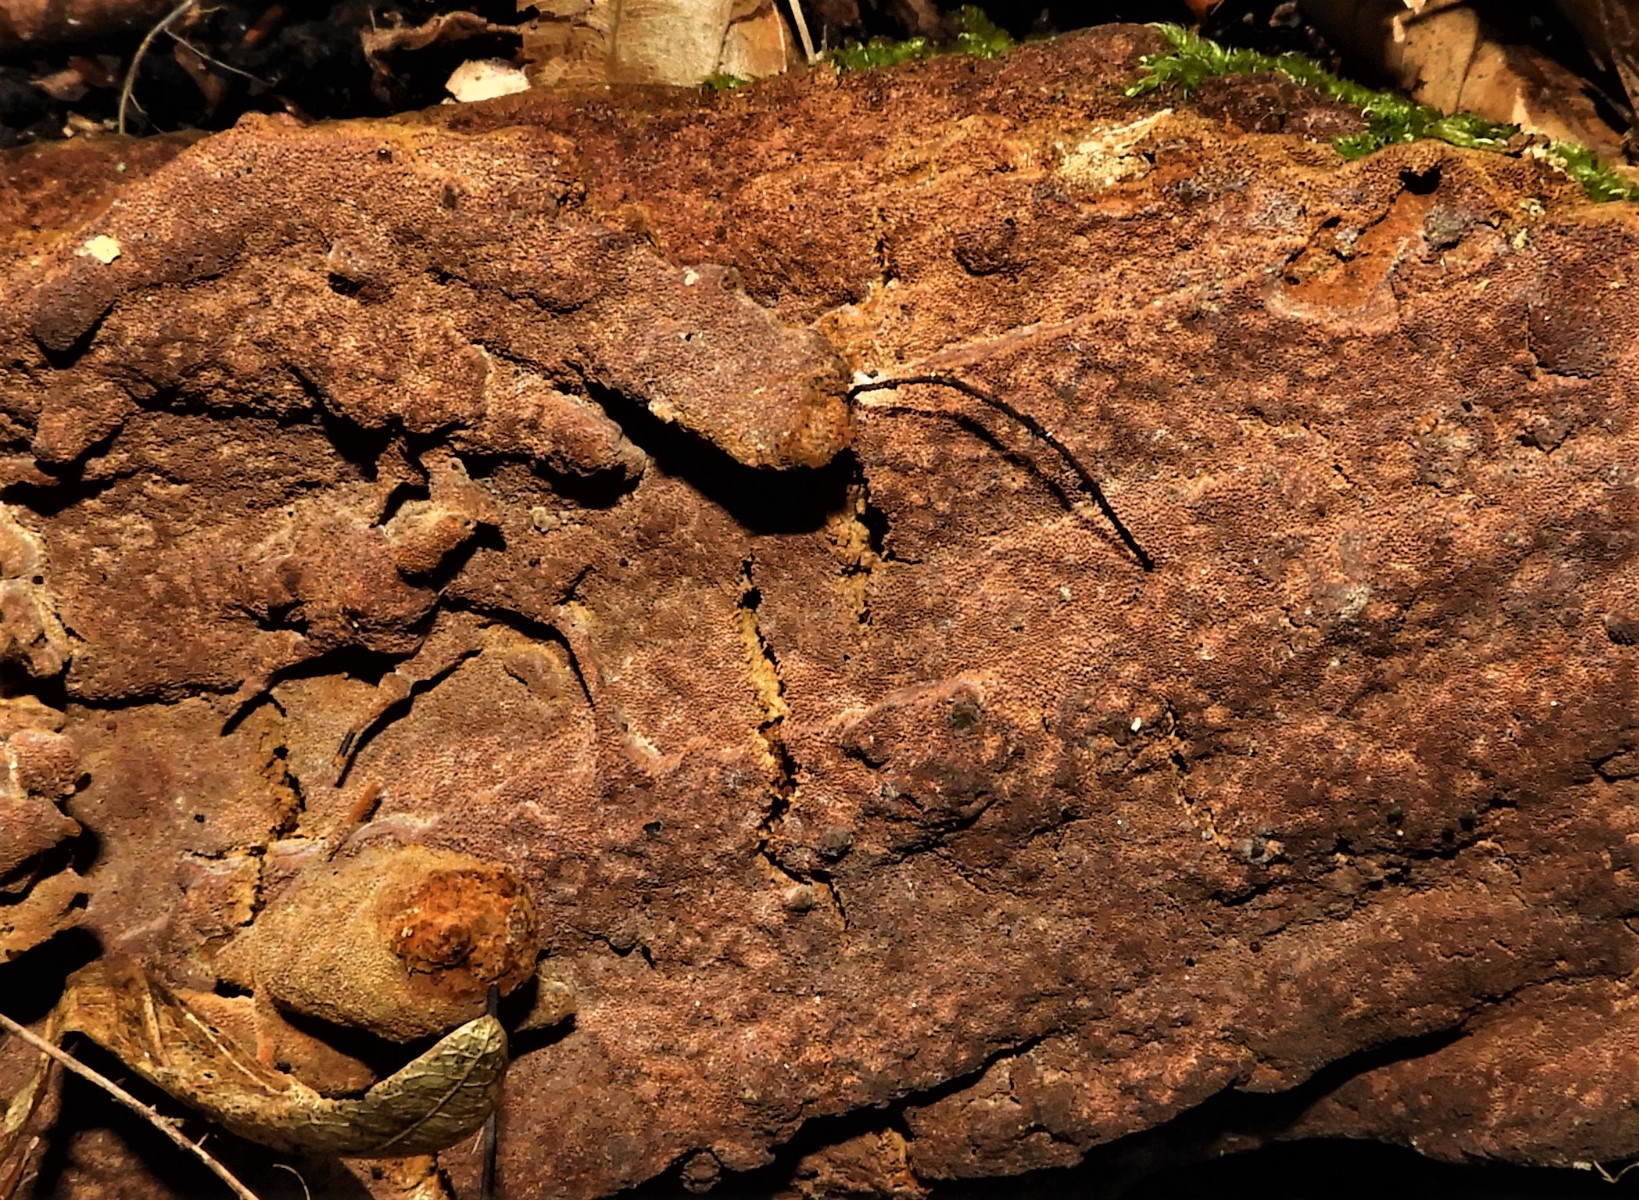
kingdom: Fungi
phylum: Basidiomycota
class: Agaricomycetes
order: Hymenochaetales
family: Hymenochaetaceae
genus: Fuscoporia
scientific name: Fuscoporia ferrea
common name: skorpe-ildporesvamp
